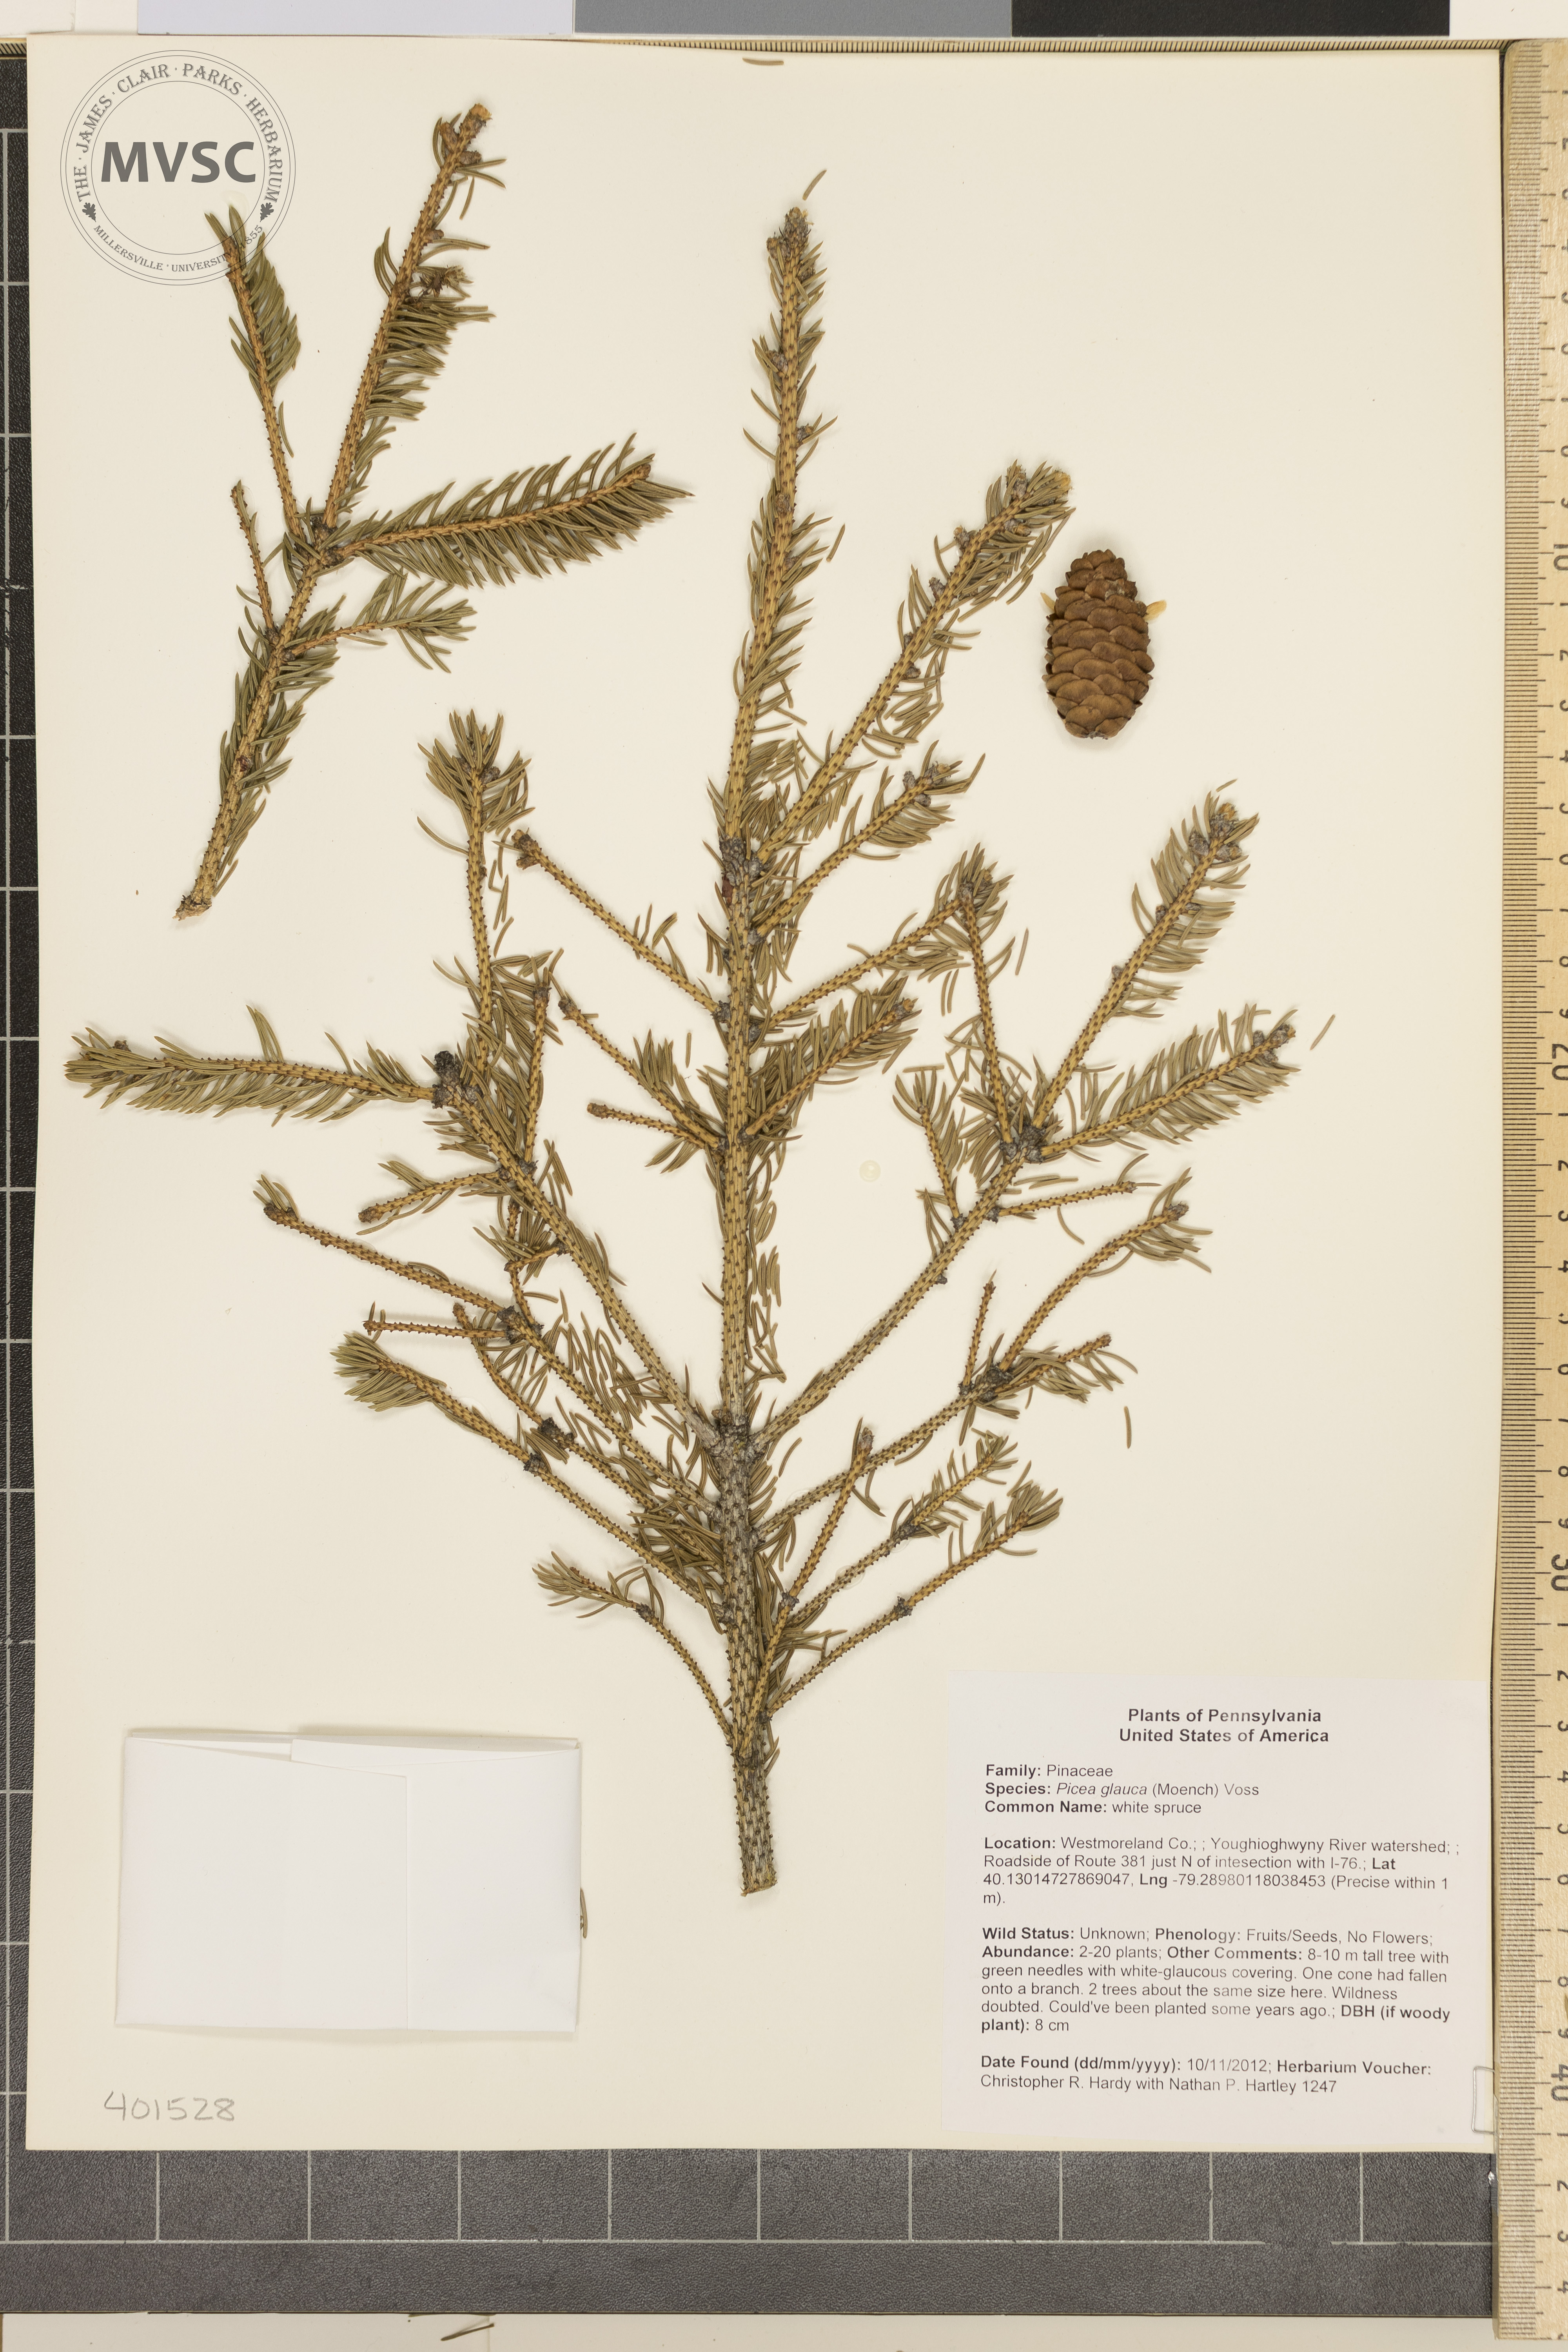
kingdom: Plantae
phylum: Tracheophyta
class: Pinopsida
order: Pinales
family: Pinaceae
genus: Picea
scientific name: Picea glauca
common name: white spruce
